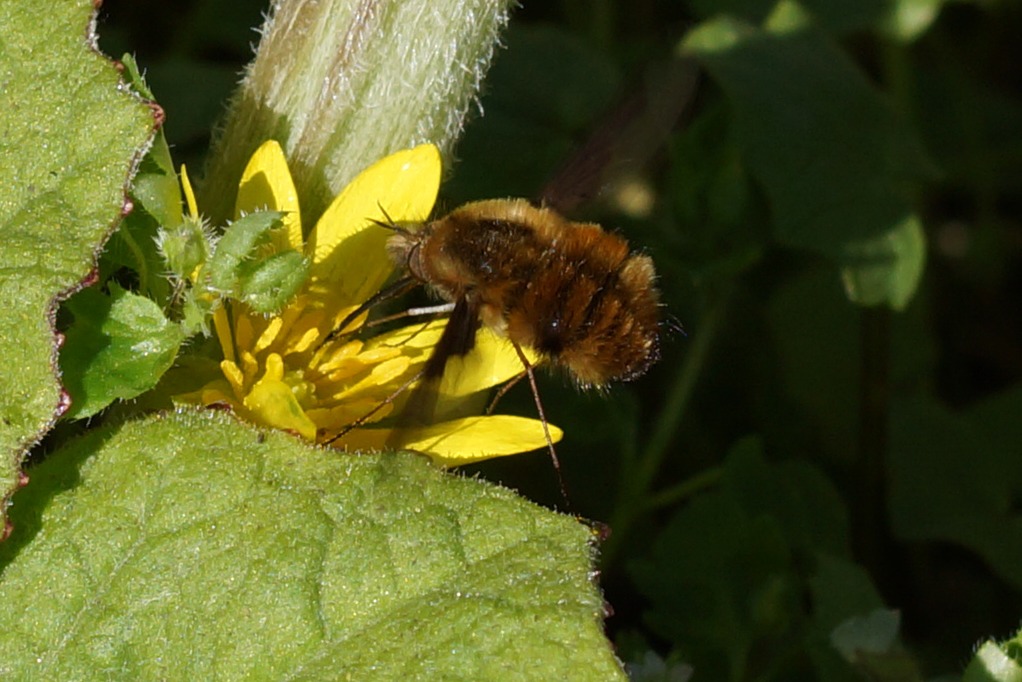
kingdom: Animalia
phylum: Arthropoda
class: Insecta
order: Diptera
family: Bombyliidae
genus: Bombylius
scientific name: Bombylius major
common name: Stor humleflue
